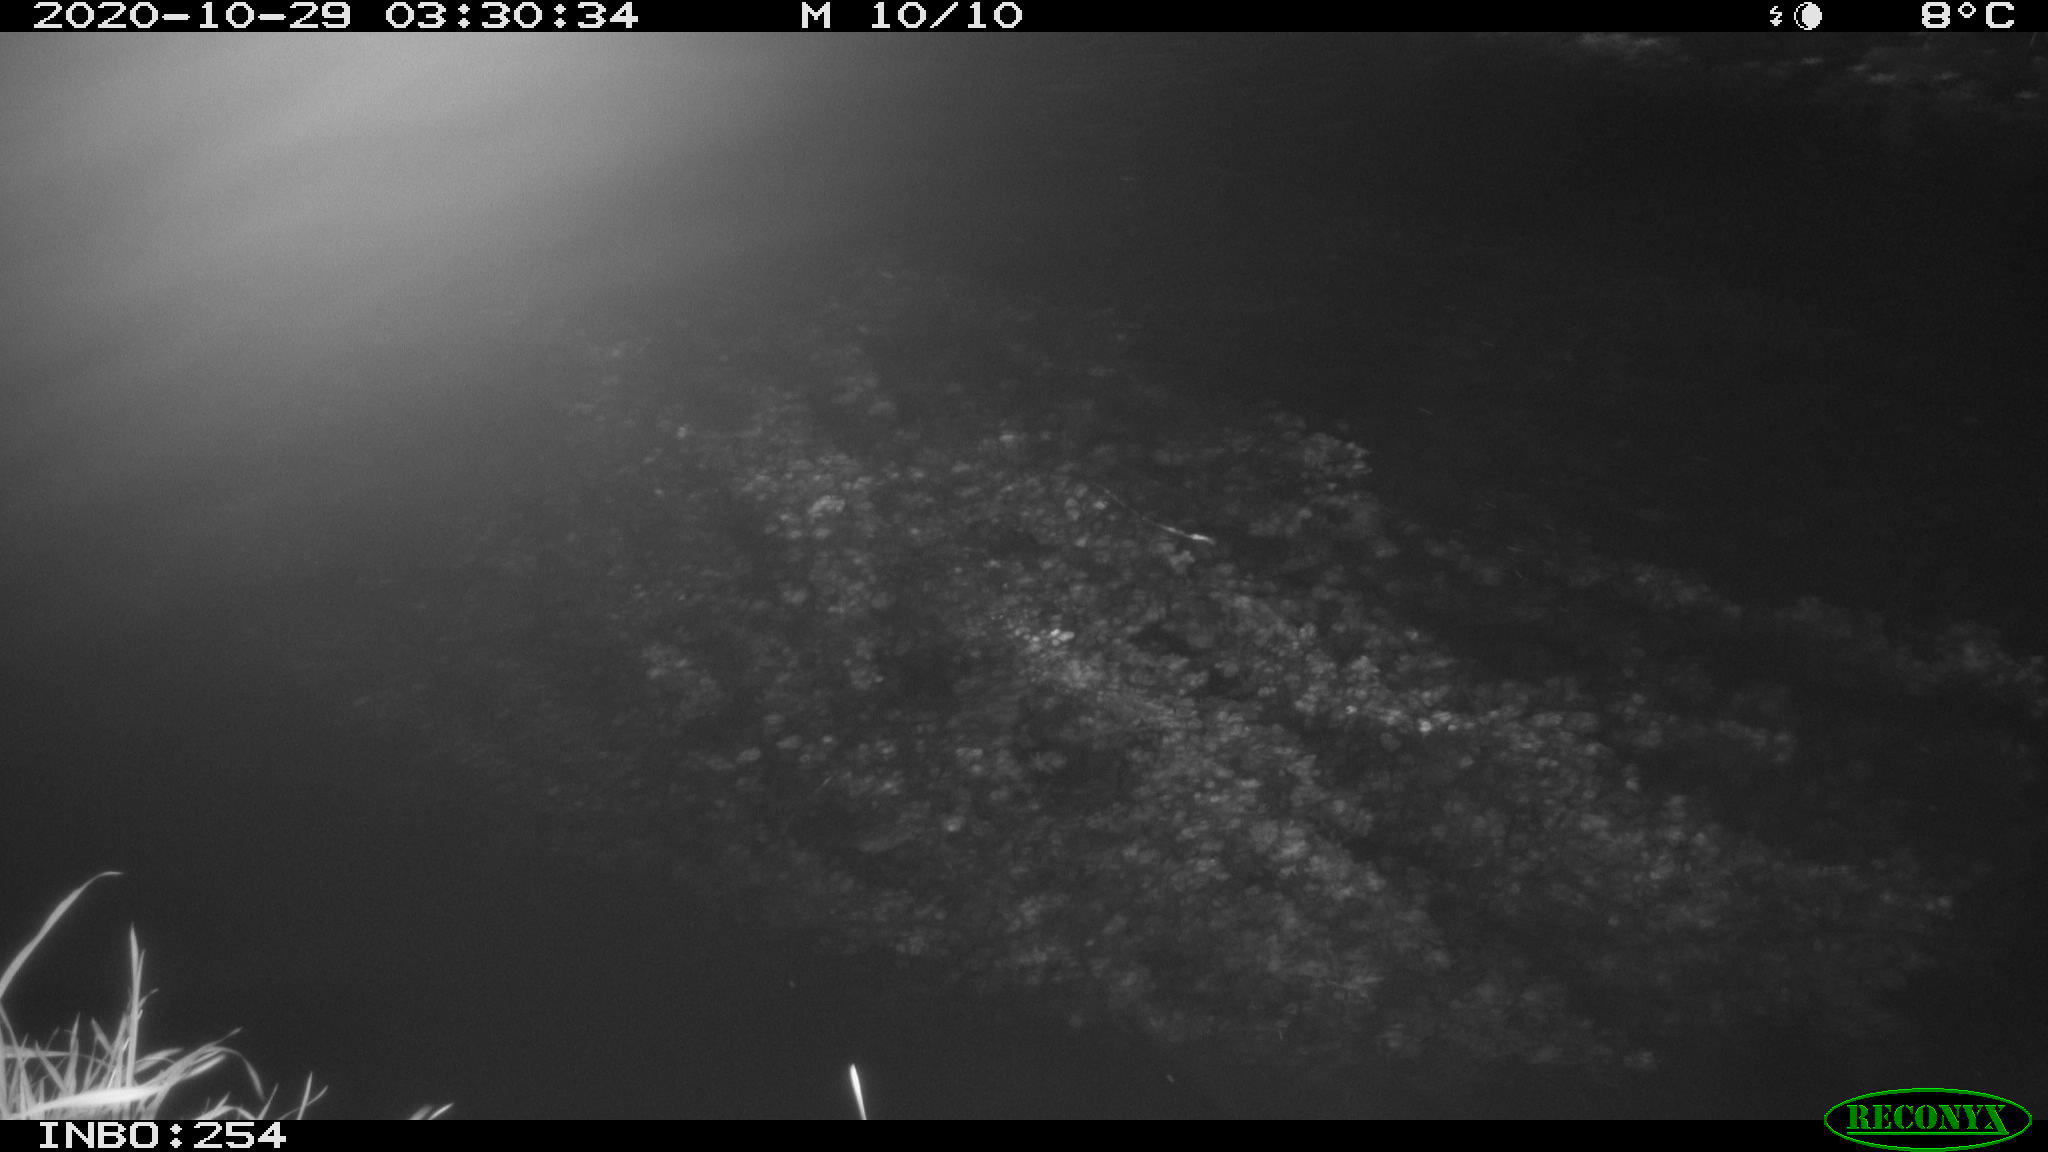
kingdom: Animalia
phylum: Chordata
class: Aves
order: Anseriformes
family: Anatidae
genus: Anas
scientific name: Anas platyrhynchos
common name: Mallard
